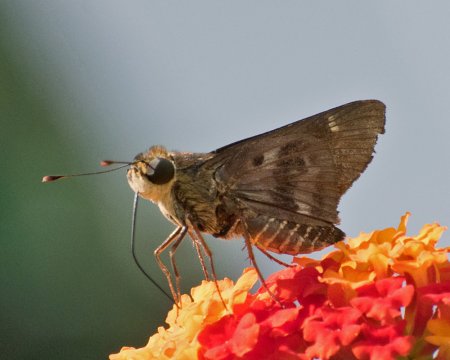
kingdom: Animalia
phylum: Arthropoda
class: Insecta
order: Lepidoptera
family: Hesperiidae
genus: Nyctelius
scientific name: Nyctelius nyctelius
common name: Violet-banded Skipper
